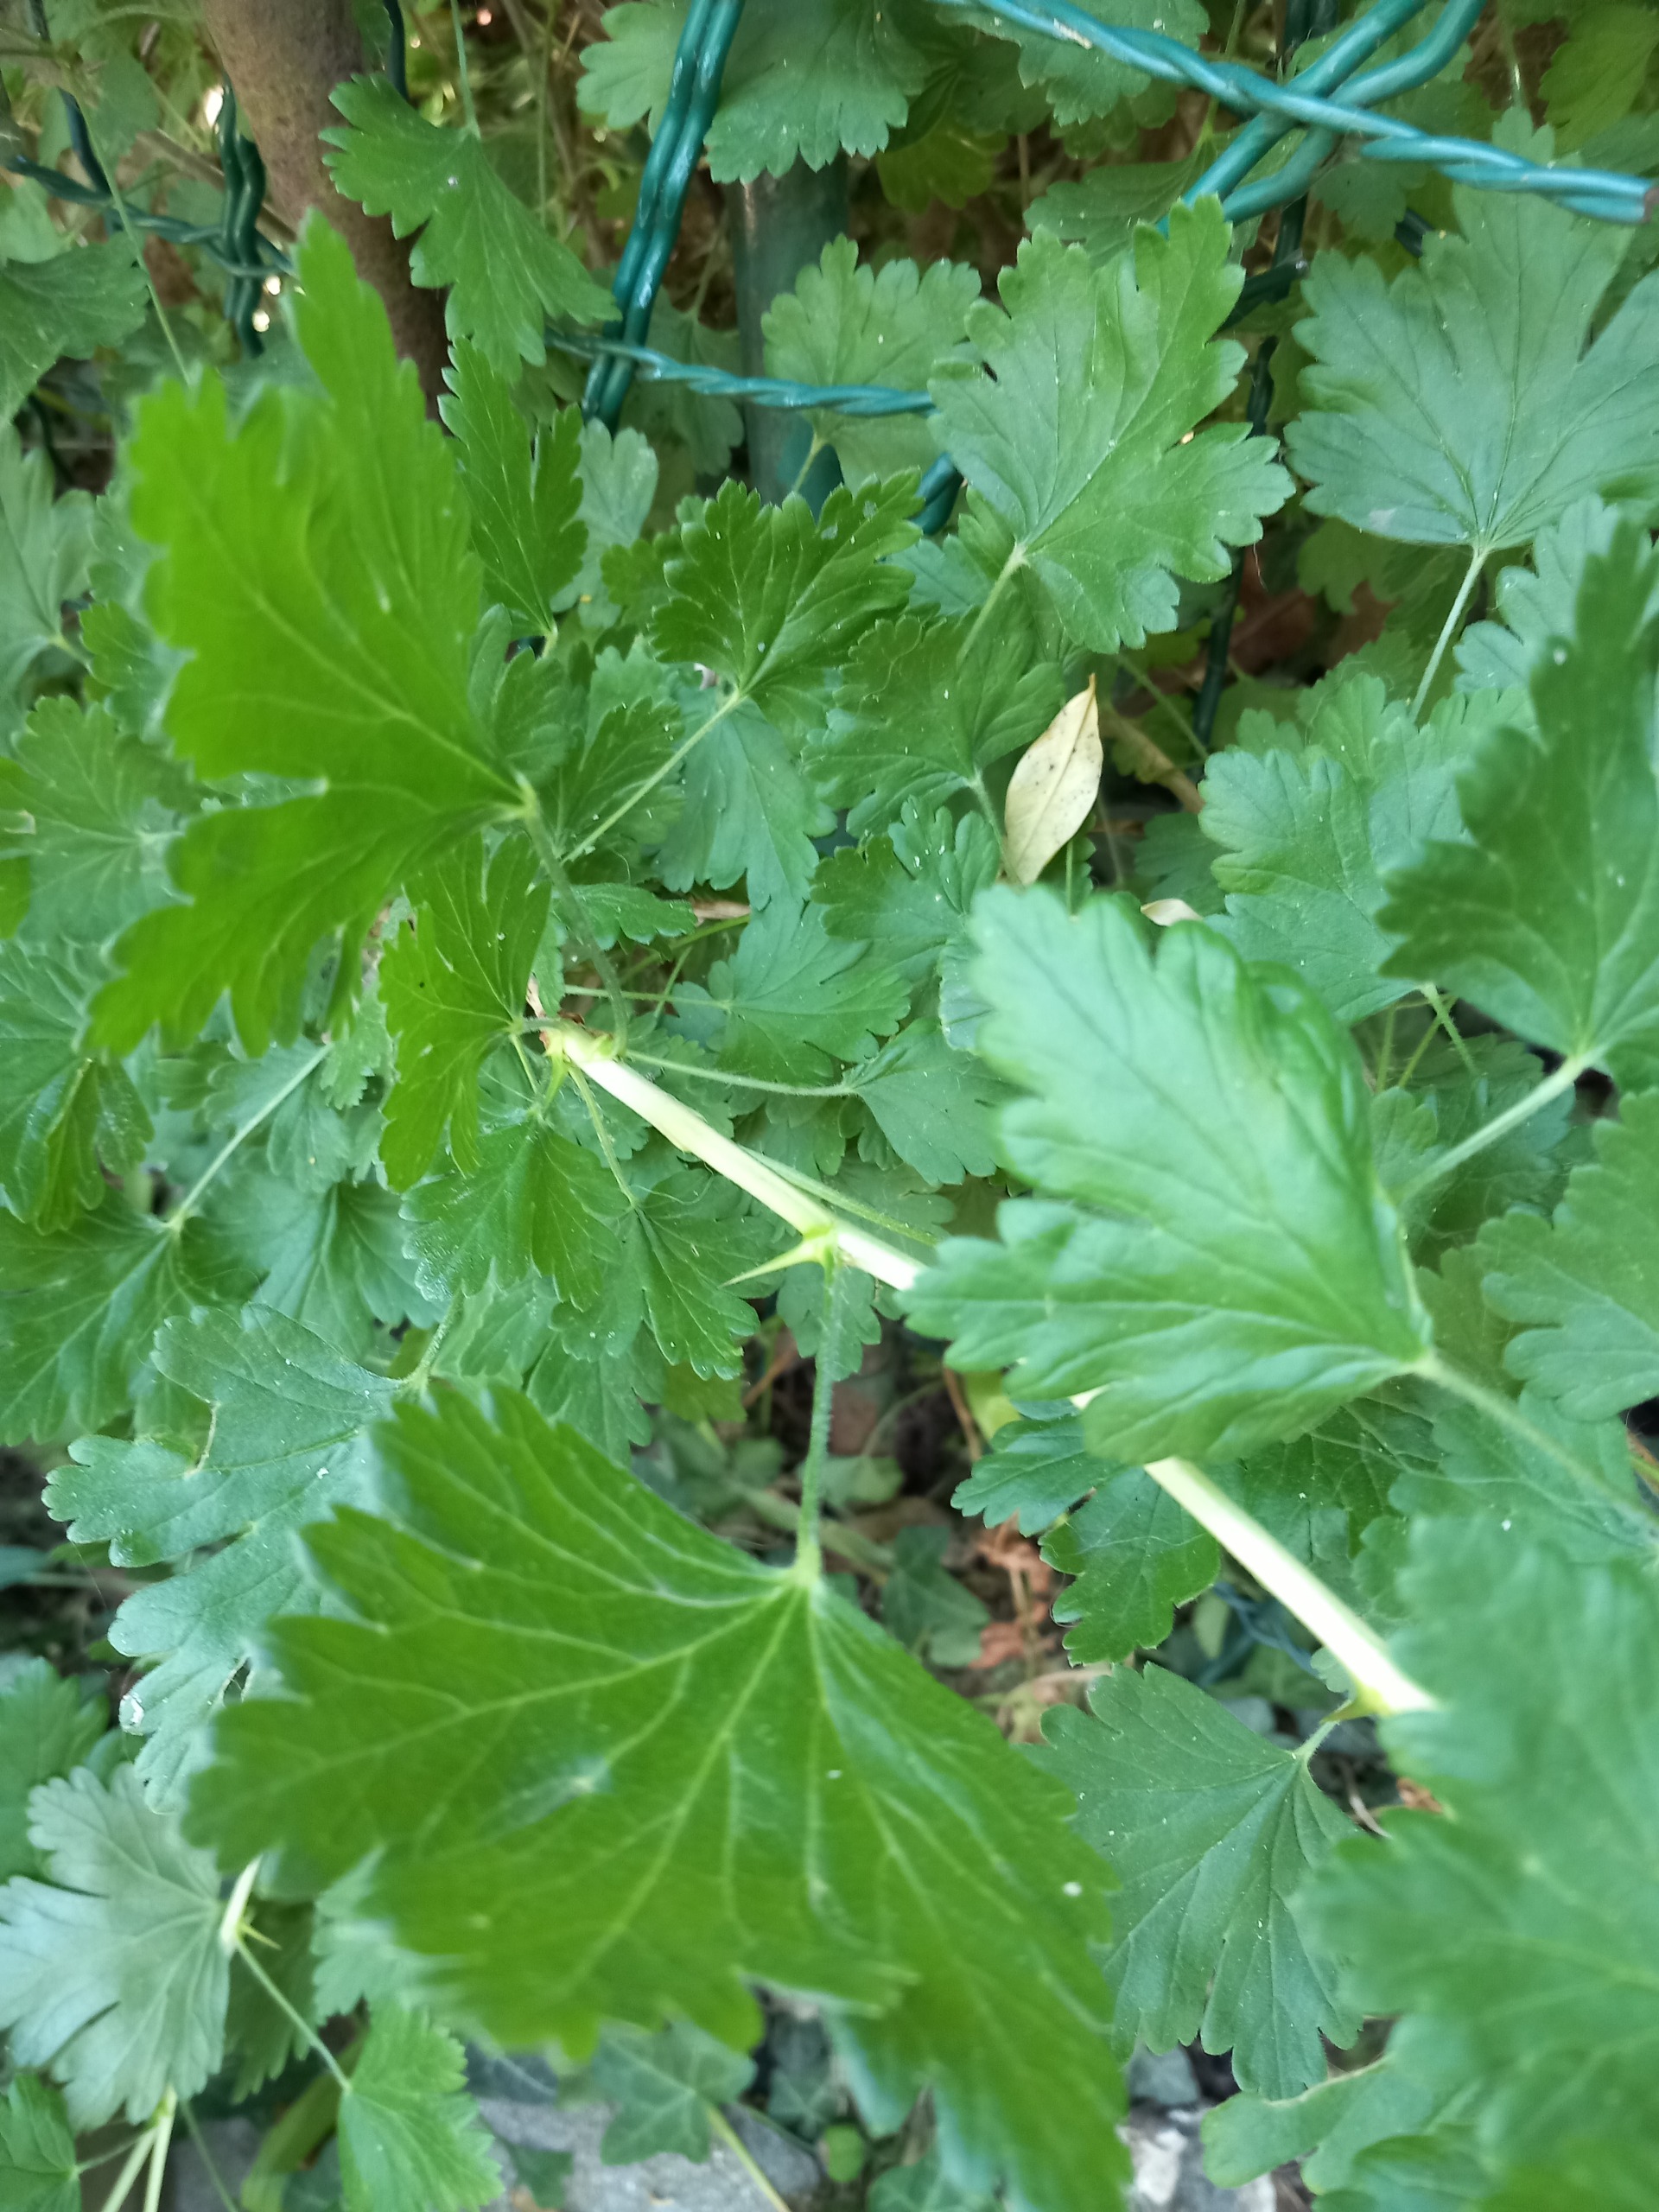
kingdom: Plantae
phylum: Tracheophyta
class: Magnoliopsida
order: Saxifragales
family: Grossulariaceae
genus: Ribes
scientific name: Ribes uva-crispa
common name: Stikkelsbær
